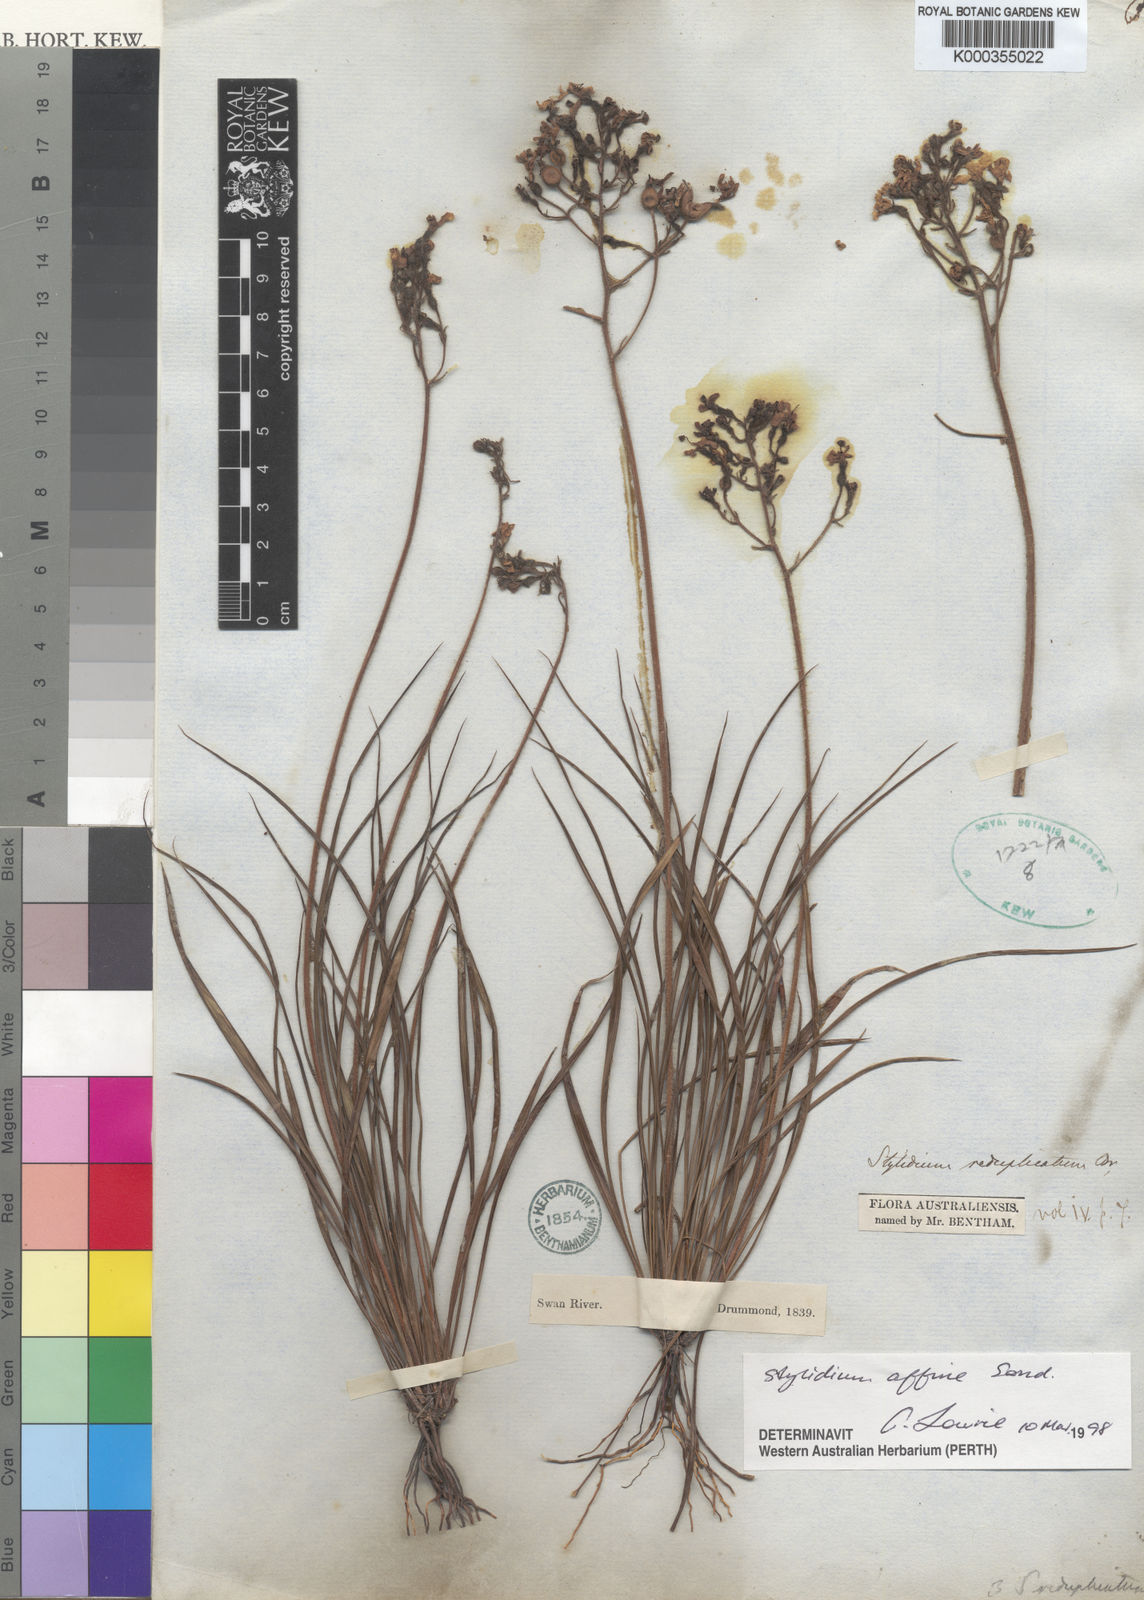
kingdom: Plantae
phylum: Tracheophyta
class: Magnoliopsida
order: Asterales
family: Stylidiaceae
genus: Stylidium
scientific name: Stylidium affine
